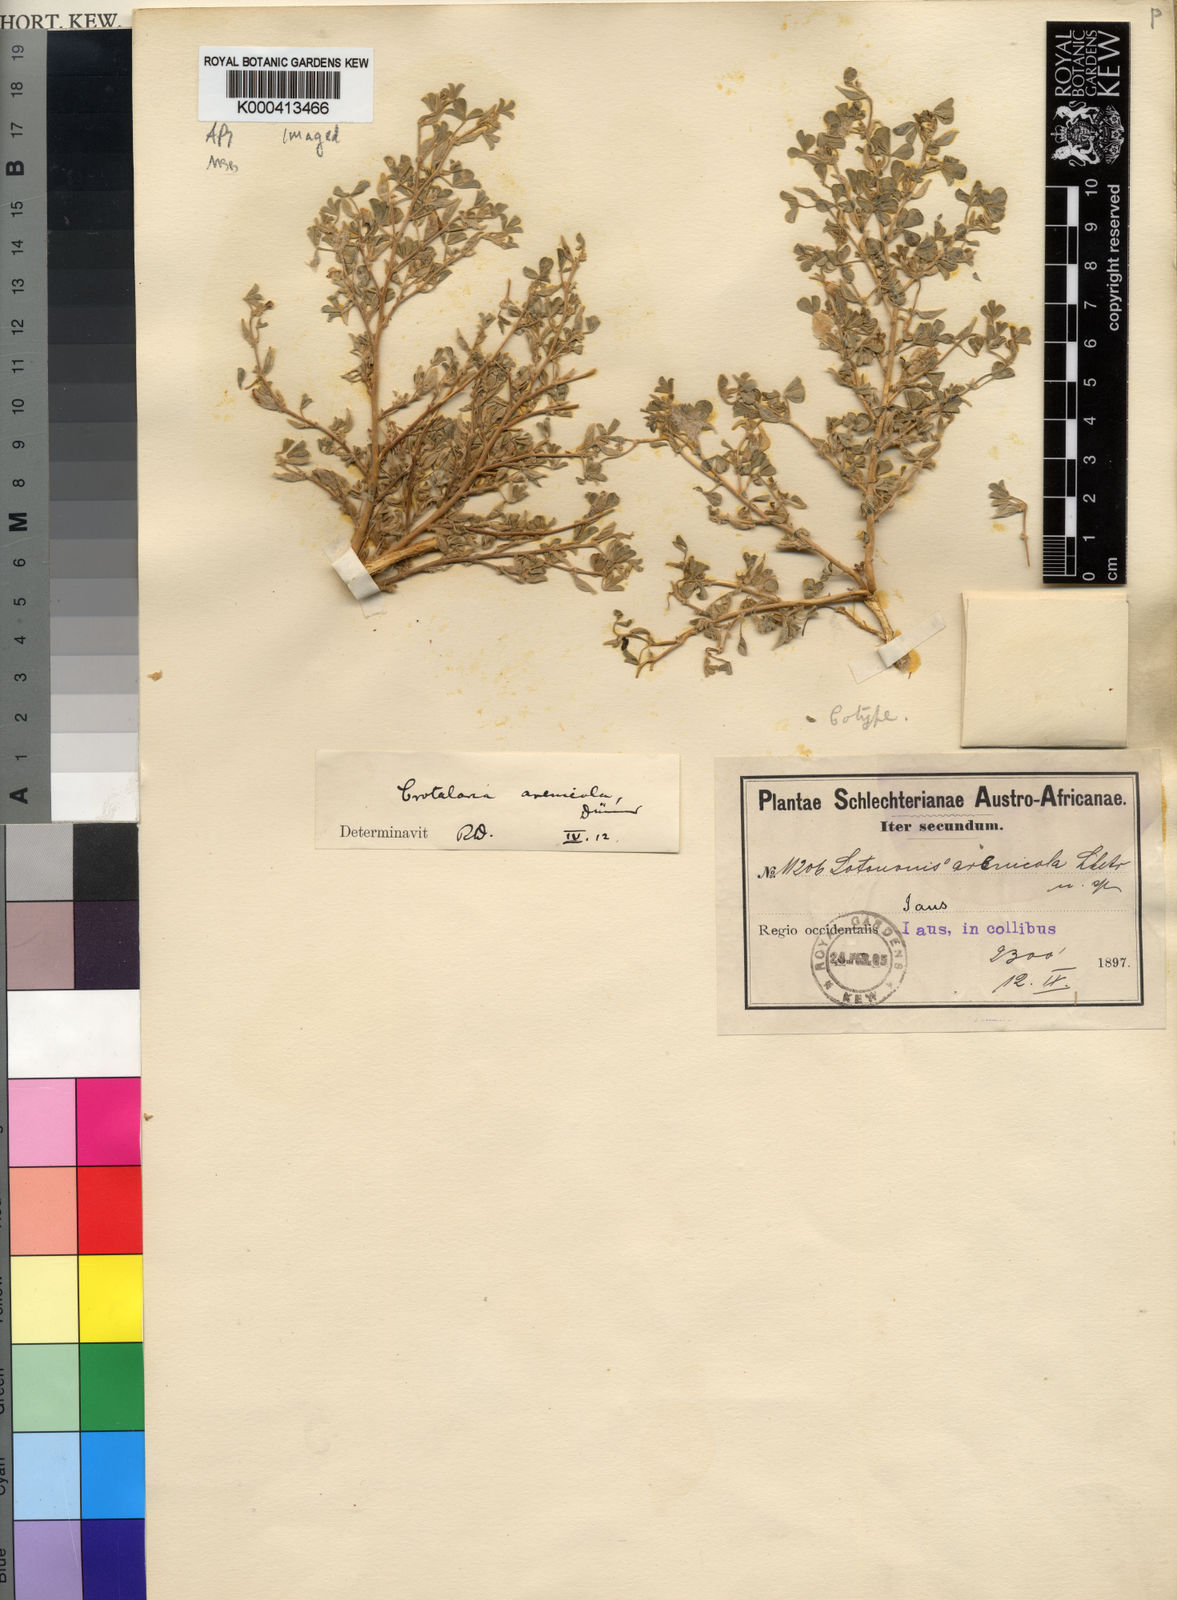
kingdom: Plantae
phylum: Tracheophyta
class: Magnoliopsida
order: Fabales
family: Fabaceae
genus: Lotononis
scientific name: Lotononis
